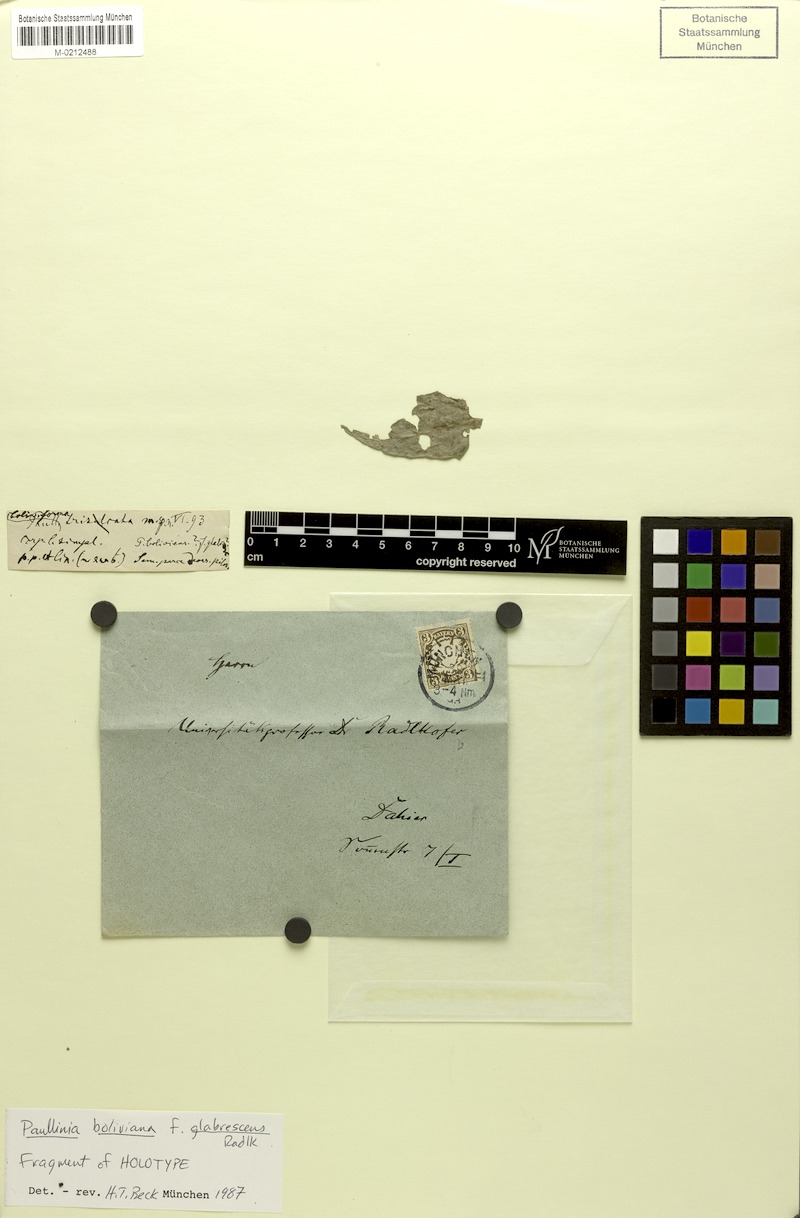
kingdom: Plantae
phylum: Tracheophyta
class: Magnoliopsida
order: Sapindales
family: Sapindaceae
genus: Paullinia
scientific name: Paullinia boliviana
